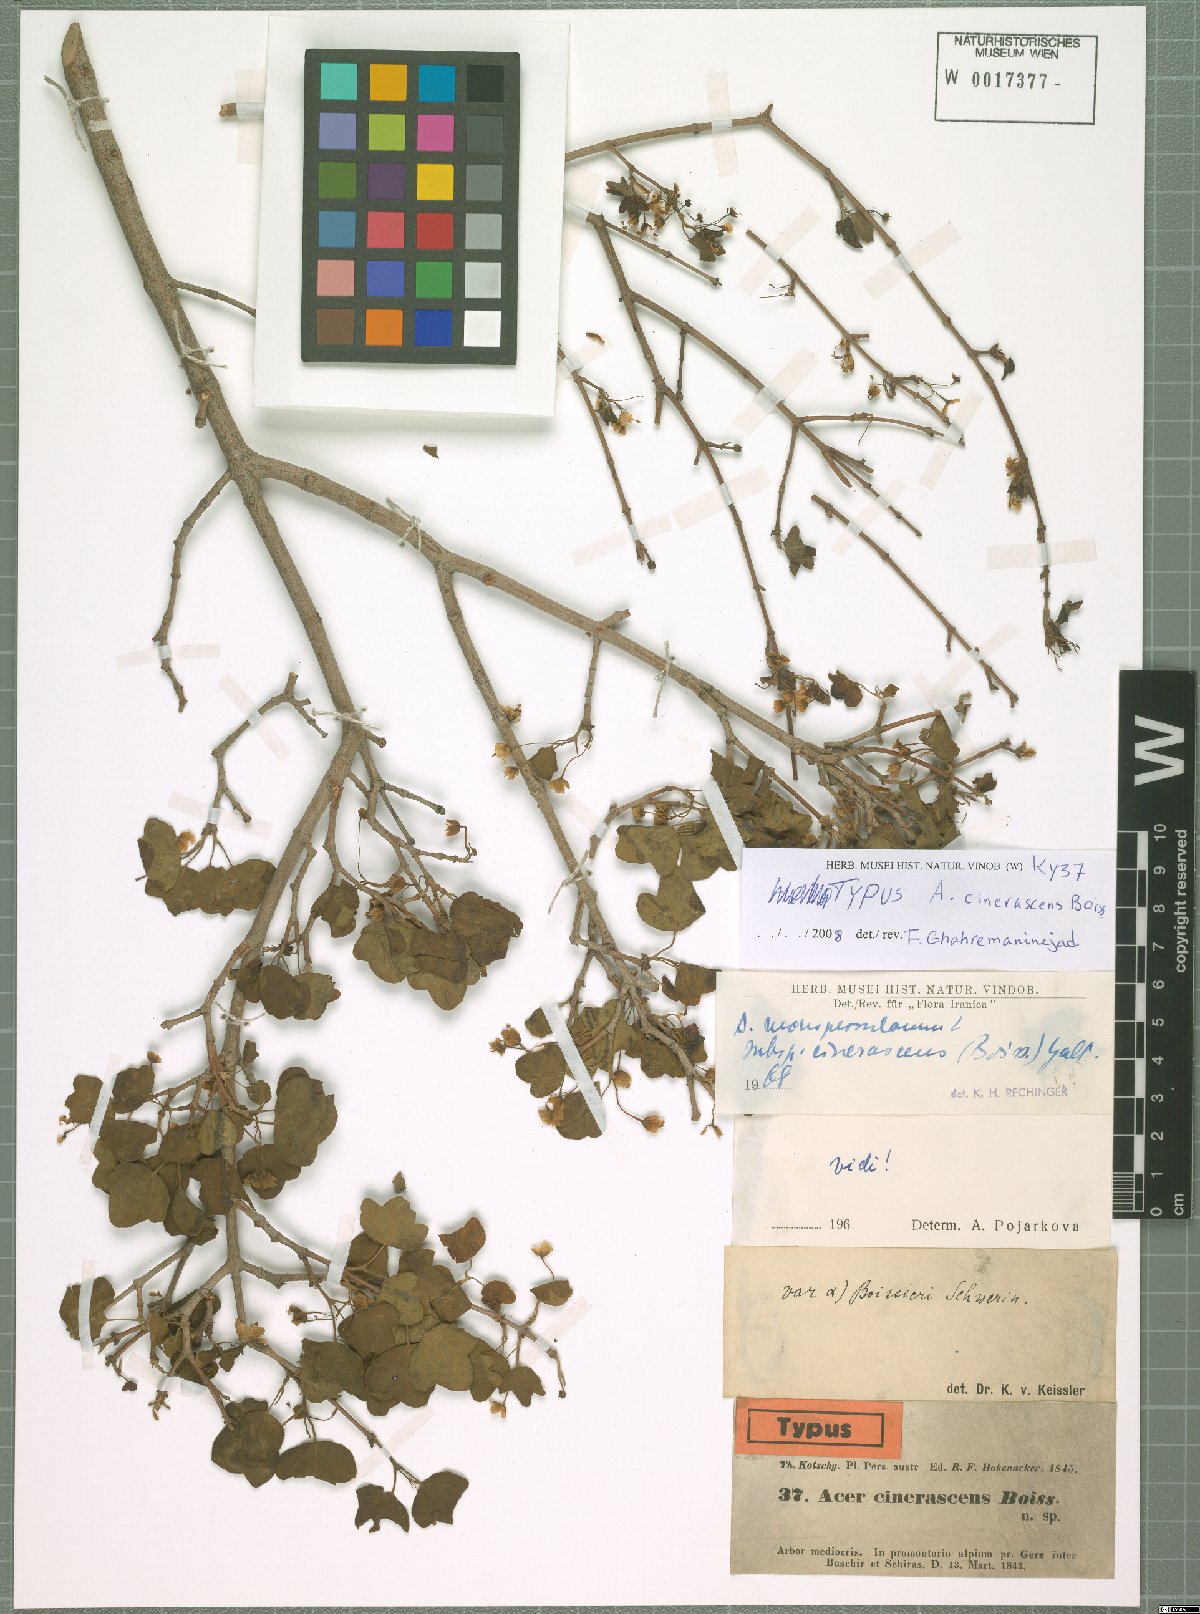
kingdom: Plantae
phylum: Tracheophyta
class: Magnoliopsida
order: Sapindales
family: Sapindaceae
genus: Acer
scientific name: Acer monspessulanum
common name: Montpellier maple
